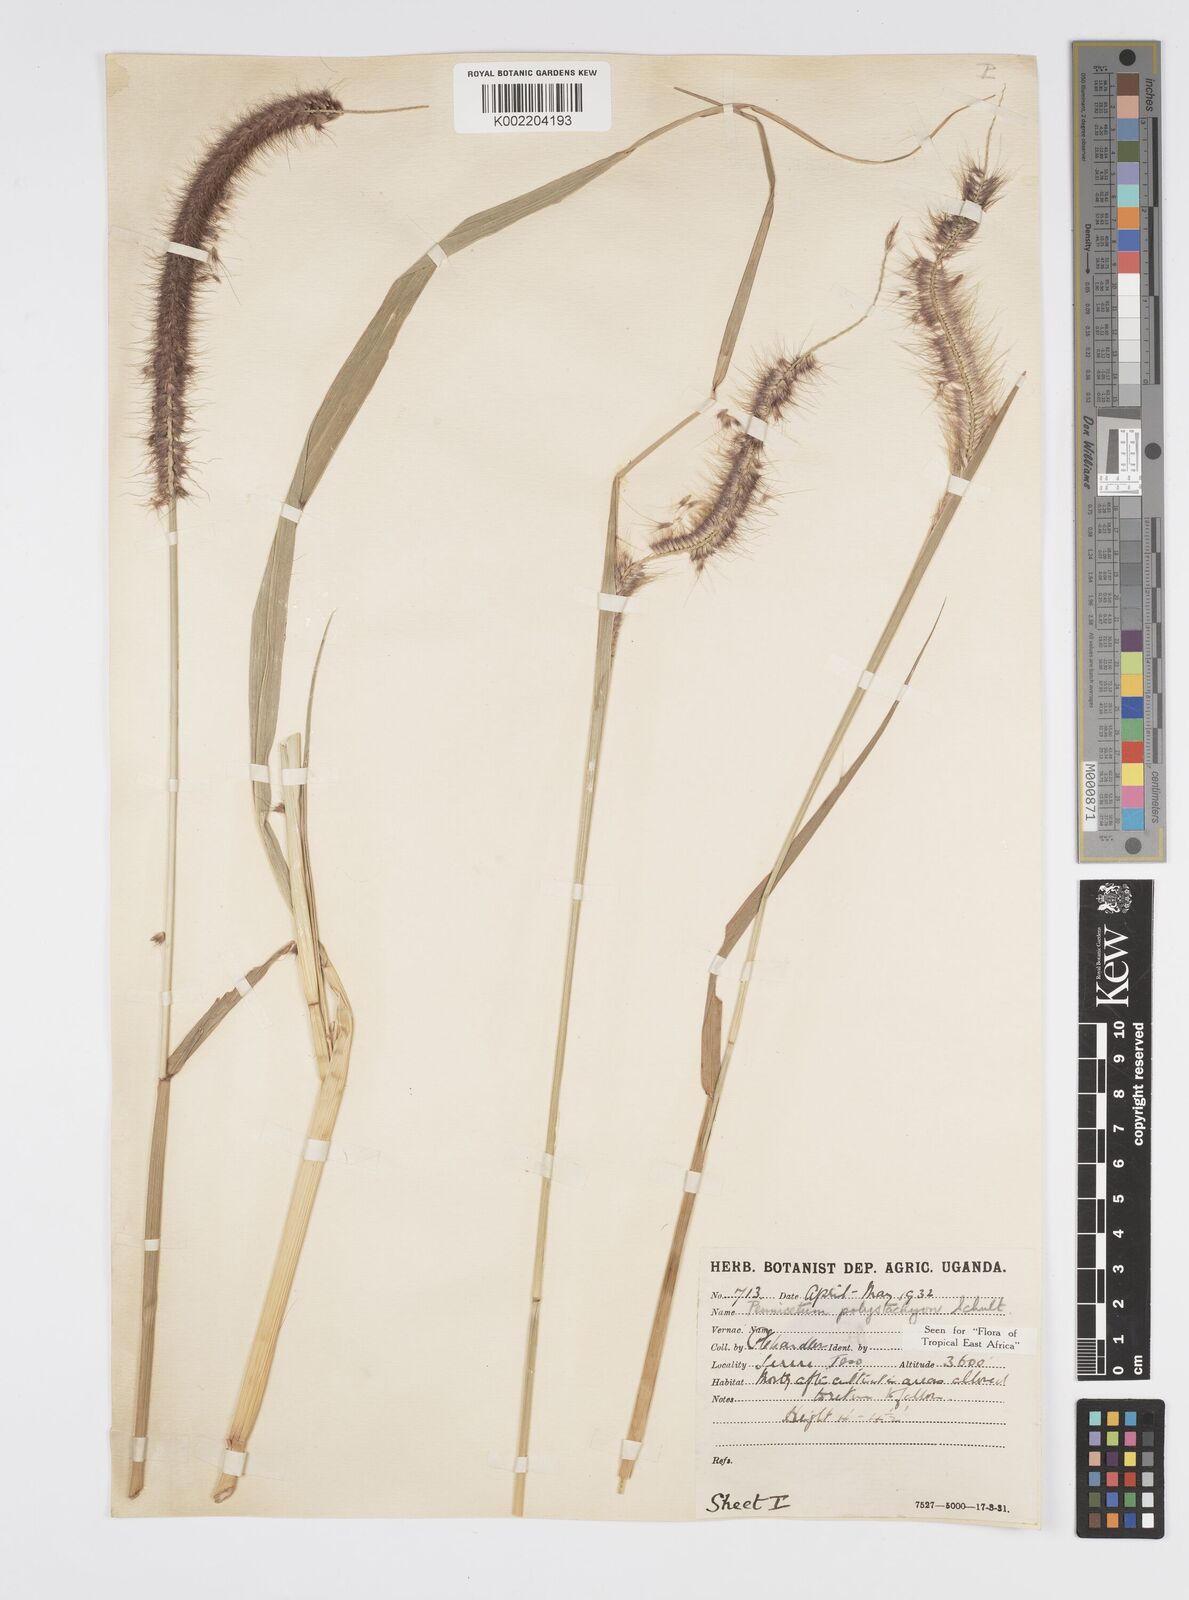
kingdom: Plantae
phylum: Tracheophyta
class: Liliopsida
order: Poales
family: Poaceae
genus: Setaria
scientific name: Setaria parviflora
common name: Knotroot bristle-grass
